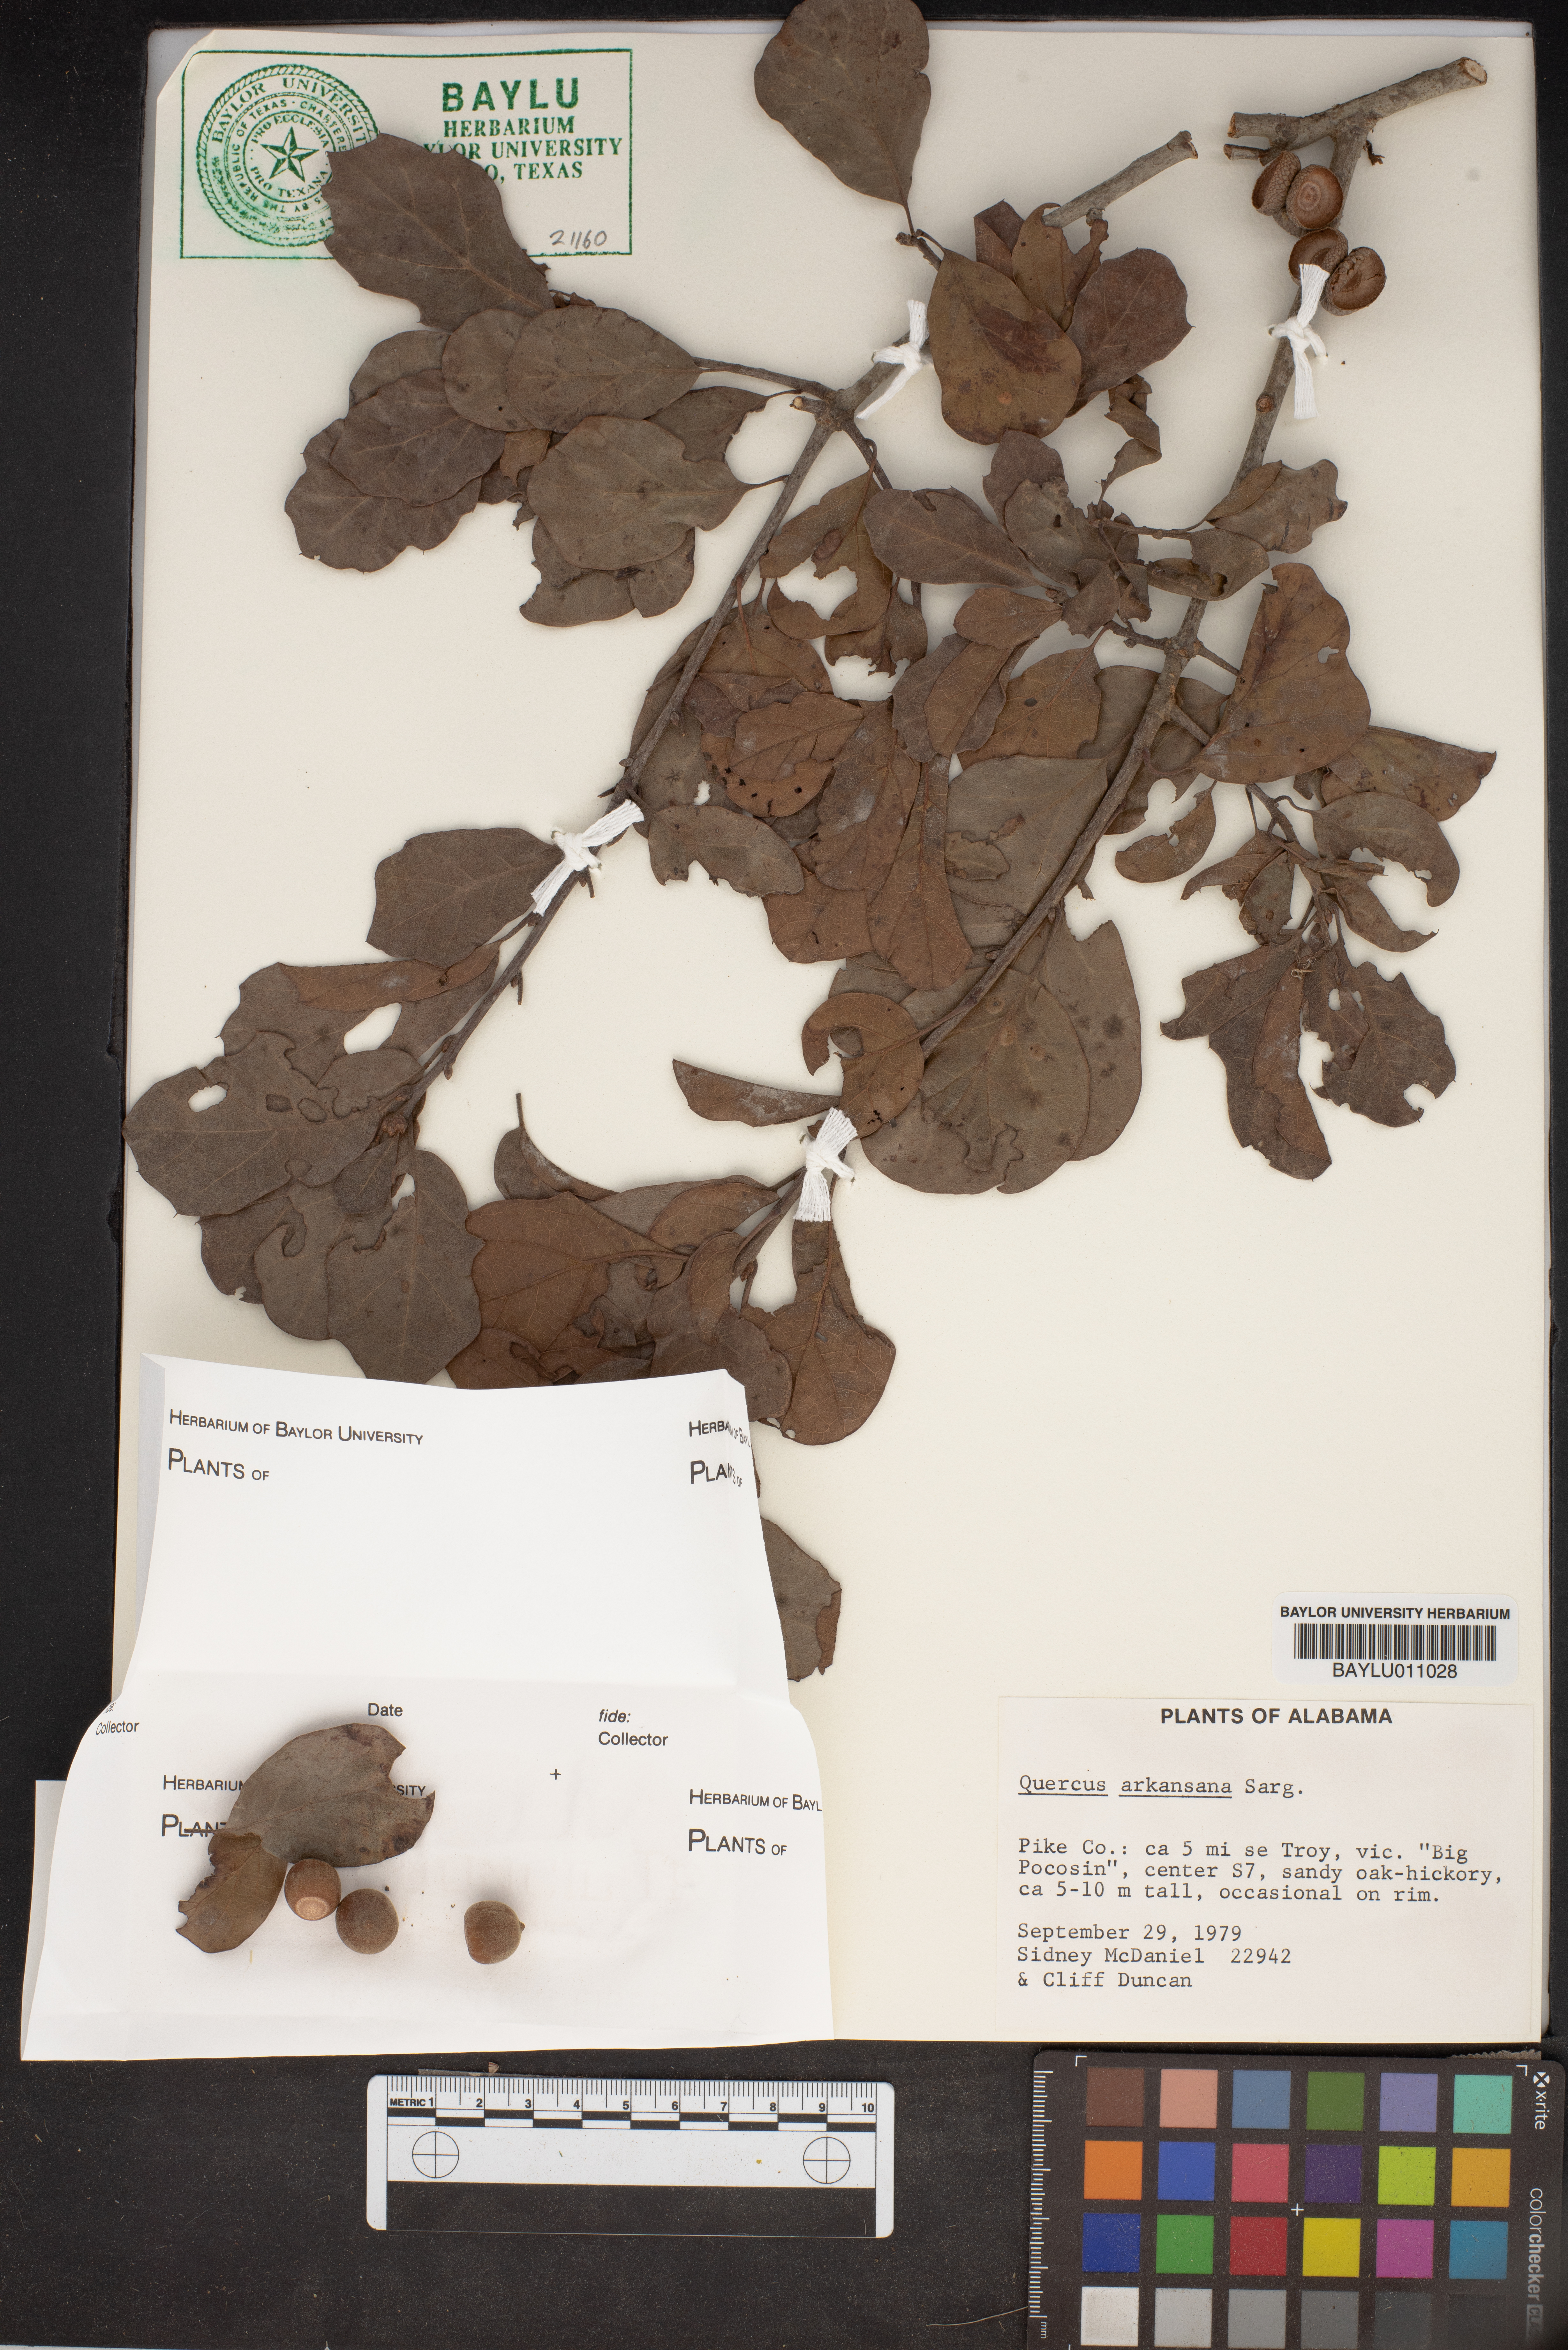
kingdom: Plantae
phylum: Tracheophyta
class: Magnoliopsida
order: Fagales
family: Fagaceae
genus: Quercus
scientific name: Quercus arkansana
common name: Arkansas oak
